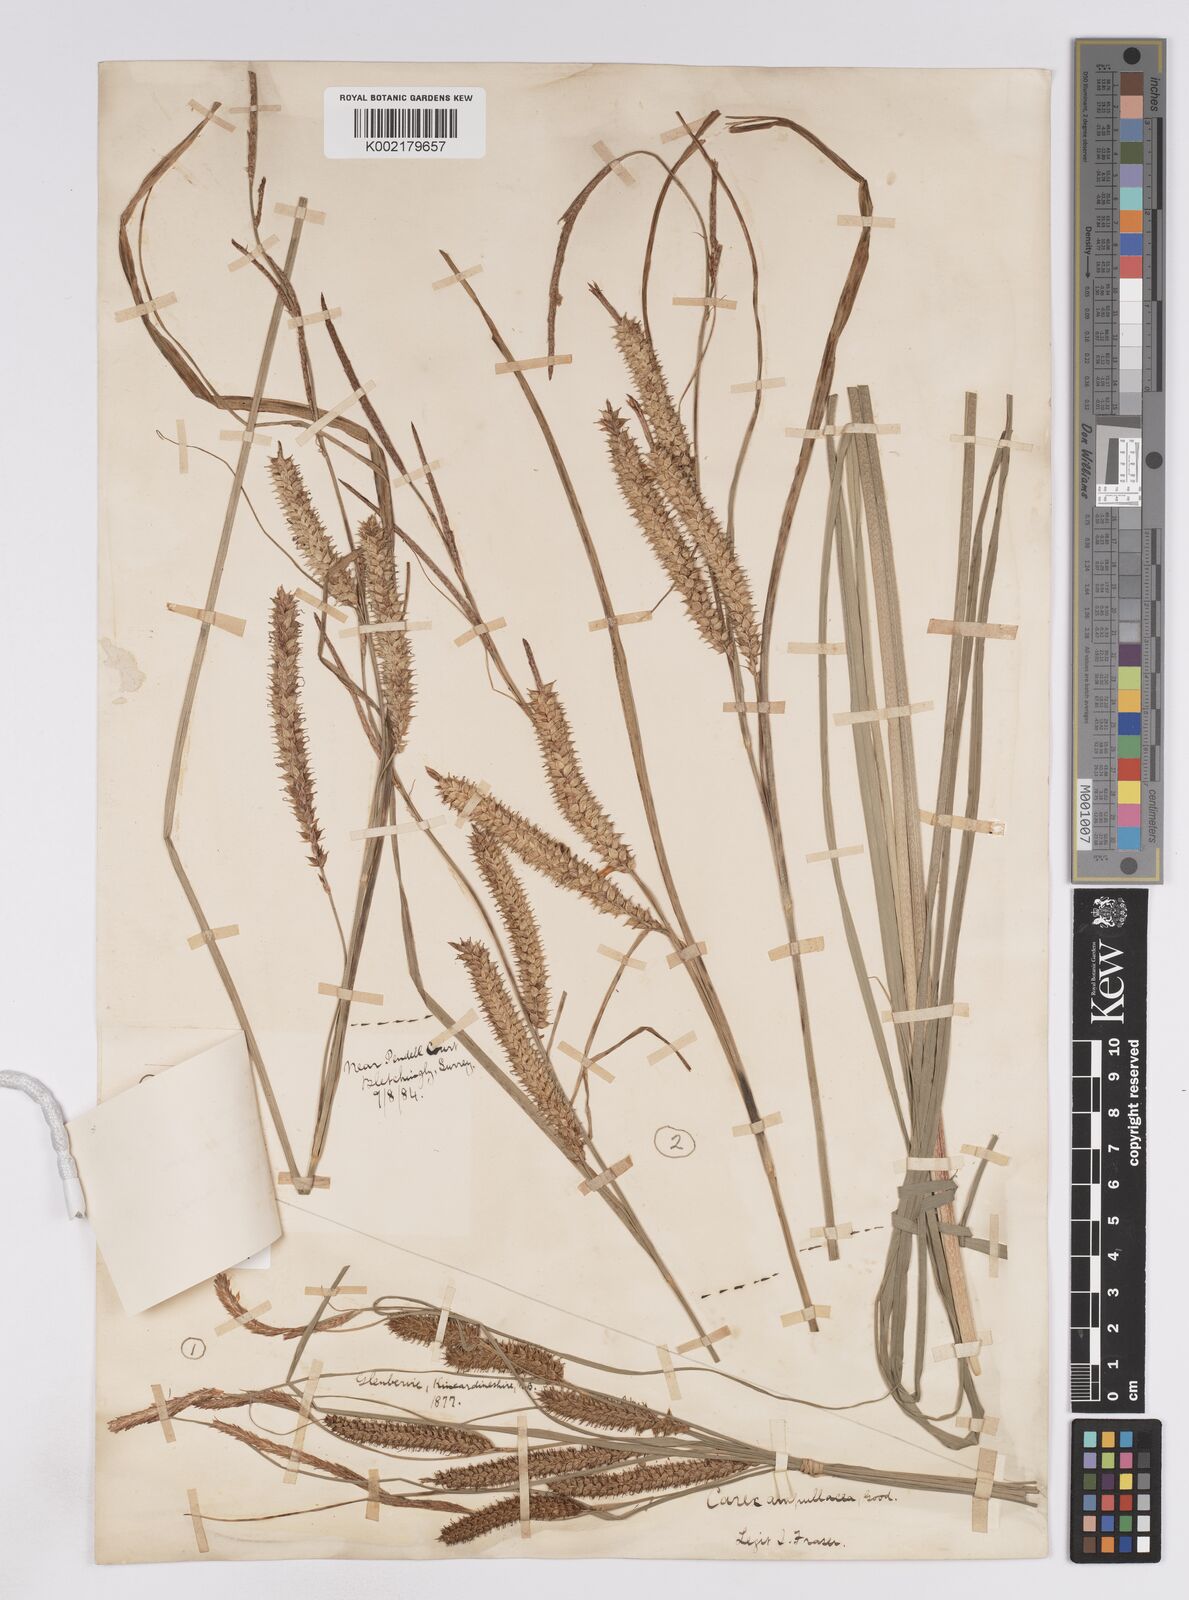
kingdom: Plantae
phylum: Tracheophyta
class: Liliopsida
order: Poales
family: Cyperaceae
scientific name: Cyperaceae
